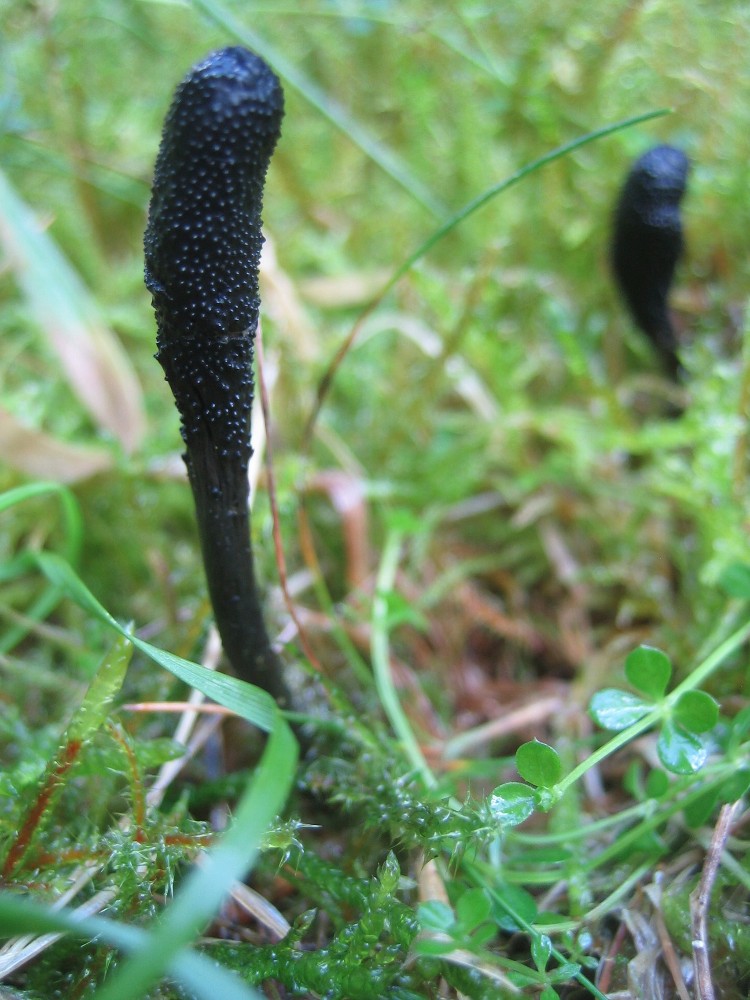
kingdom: Fungi
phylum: Ascomycota
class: Sordariomycetes
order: Hypocreales
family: Ophiocordycipitaceae
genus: Tolypocladium
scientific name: Tolypocladium ophioglossoides
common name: slank snyltekølle
